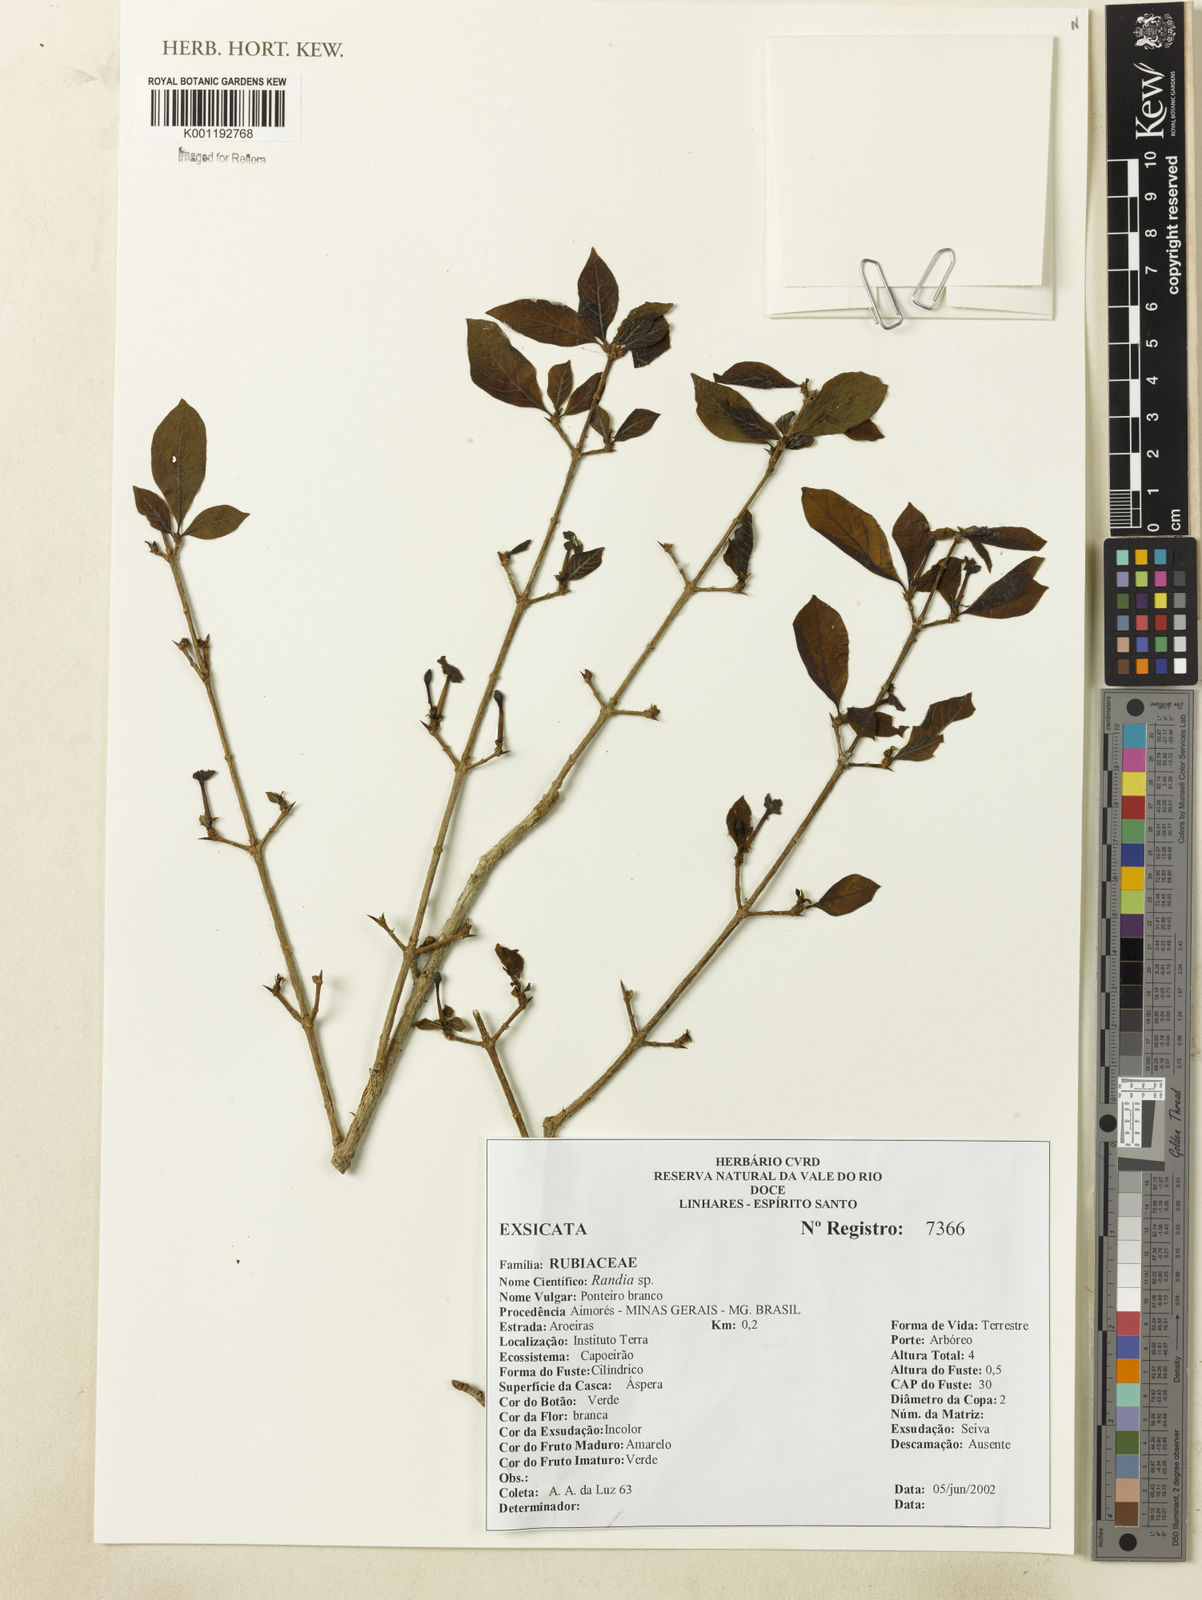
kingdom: Plantae
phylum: Tracheophyta
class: Magnoliopsida
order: Gentianales
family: Rubiaceae
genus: Randia
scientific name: Randia
